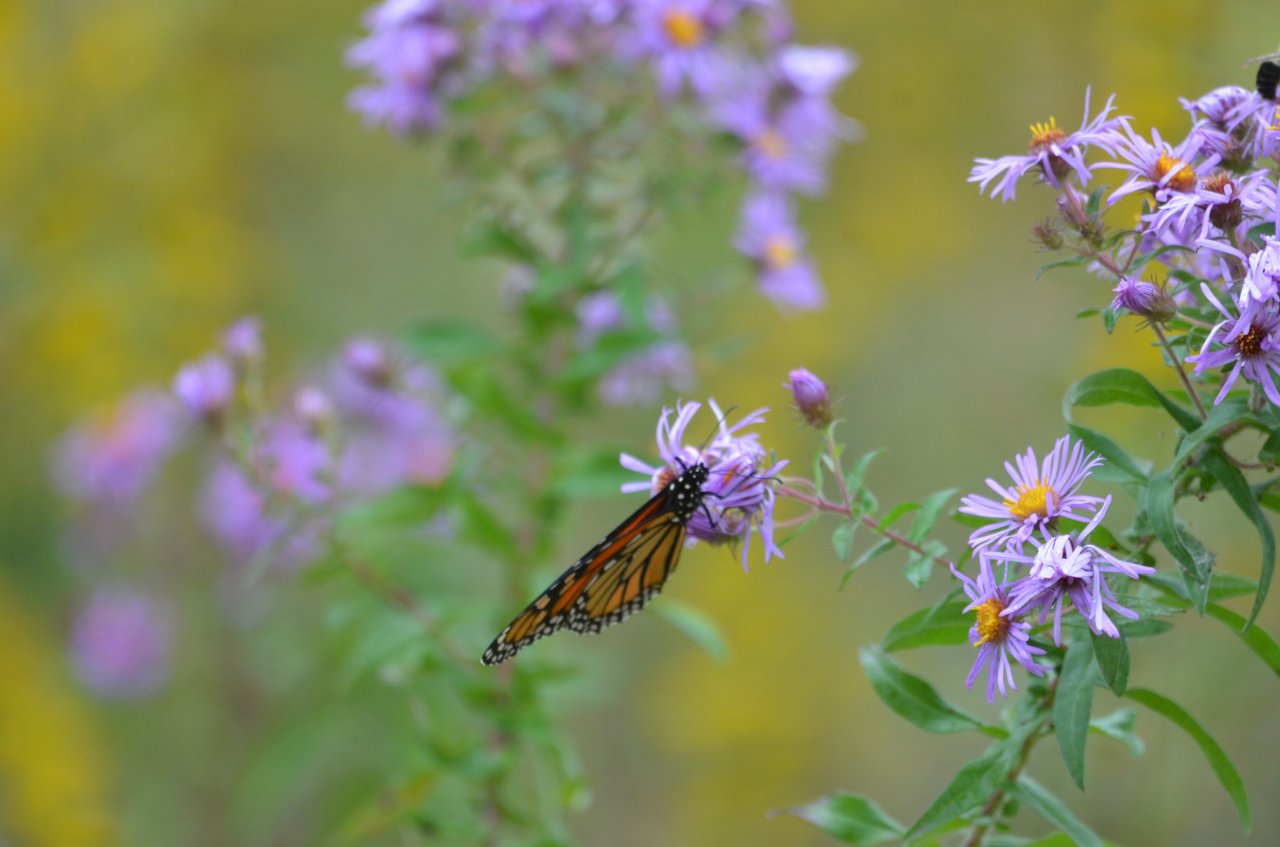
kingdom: Animalia
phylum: Arthropoda
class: Insecta
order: Lepidoptera
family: Nymphalidae
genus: Danaus
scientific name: Danaus plexippus
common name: Monarch
